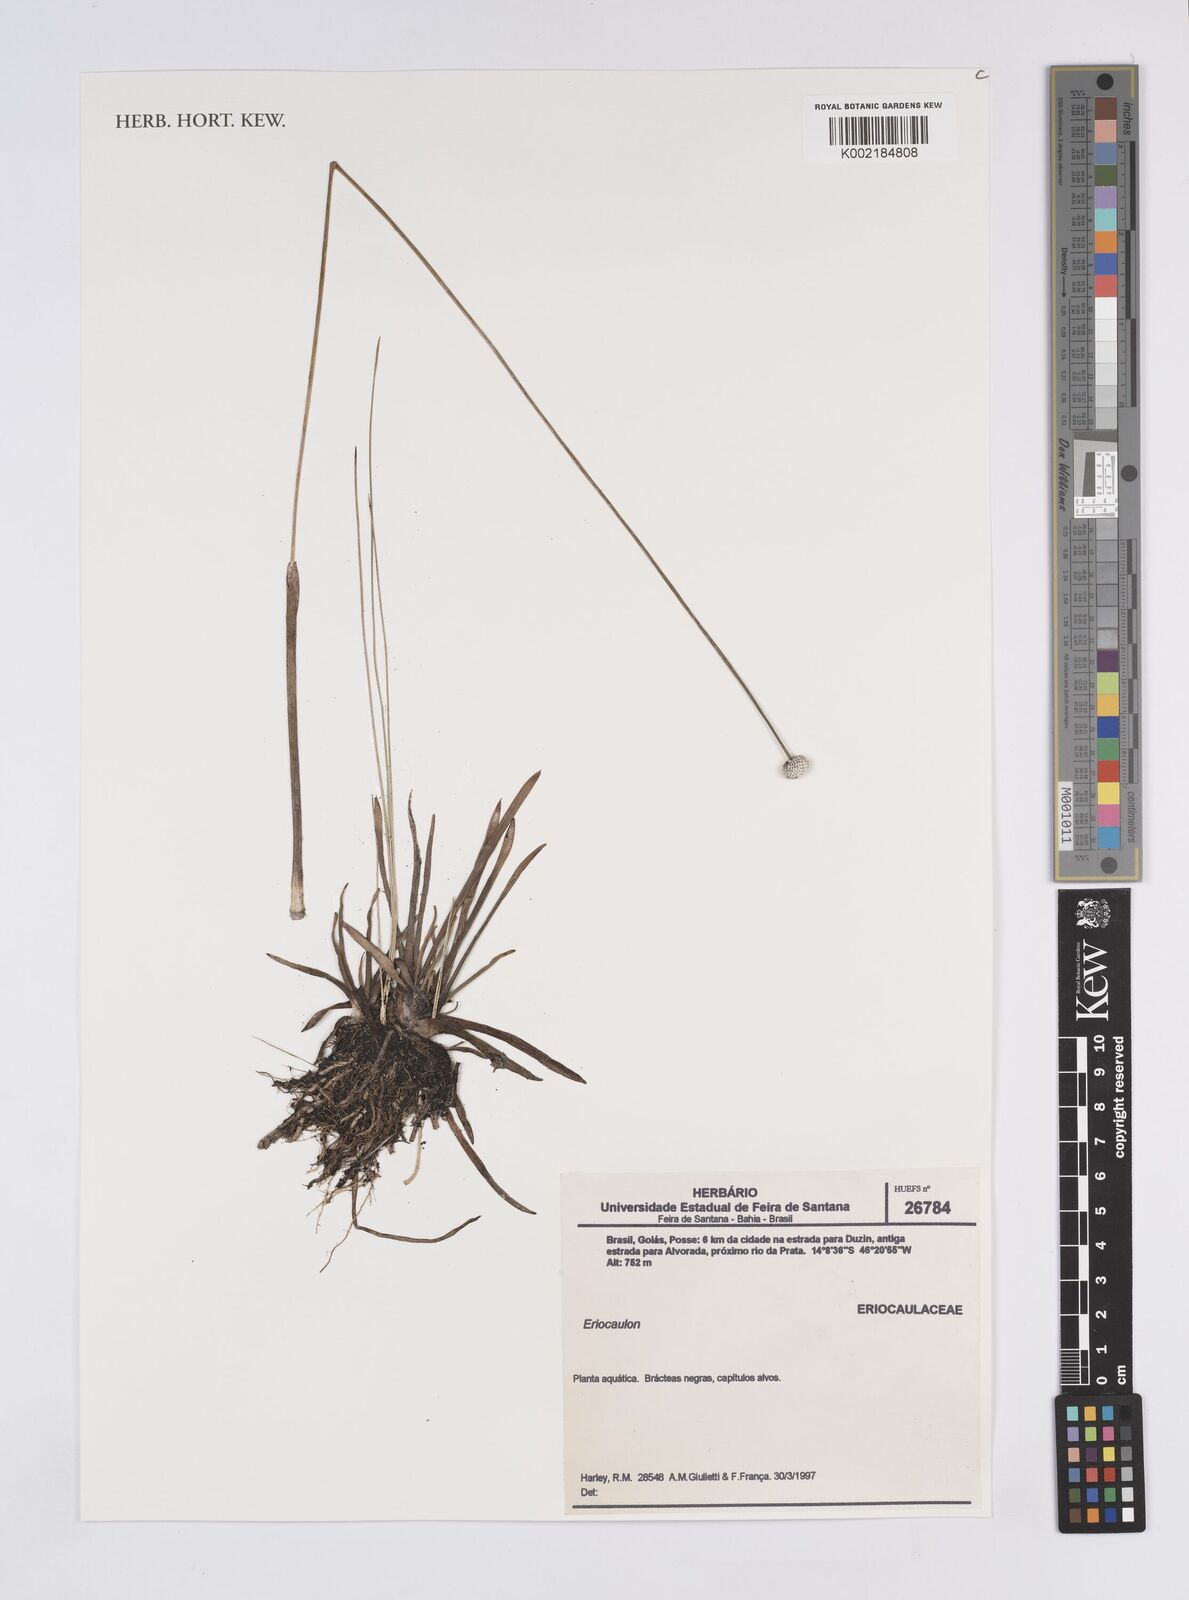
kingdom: Plantae
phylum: Tracheophyta
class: Liliopsida
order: Poales
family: Eriocaulaceae
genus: Eriocaulon
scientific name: Eriocaulon
